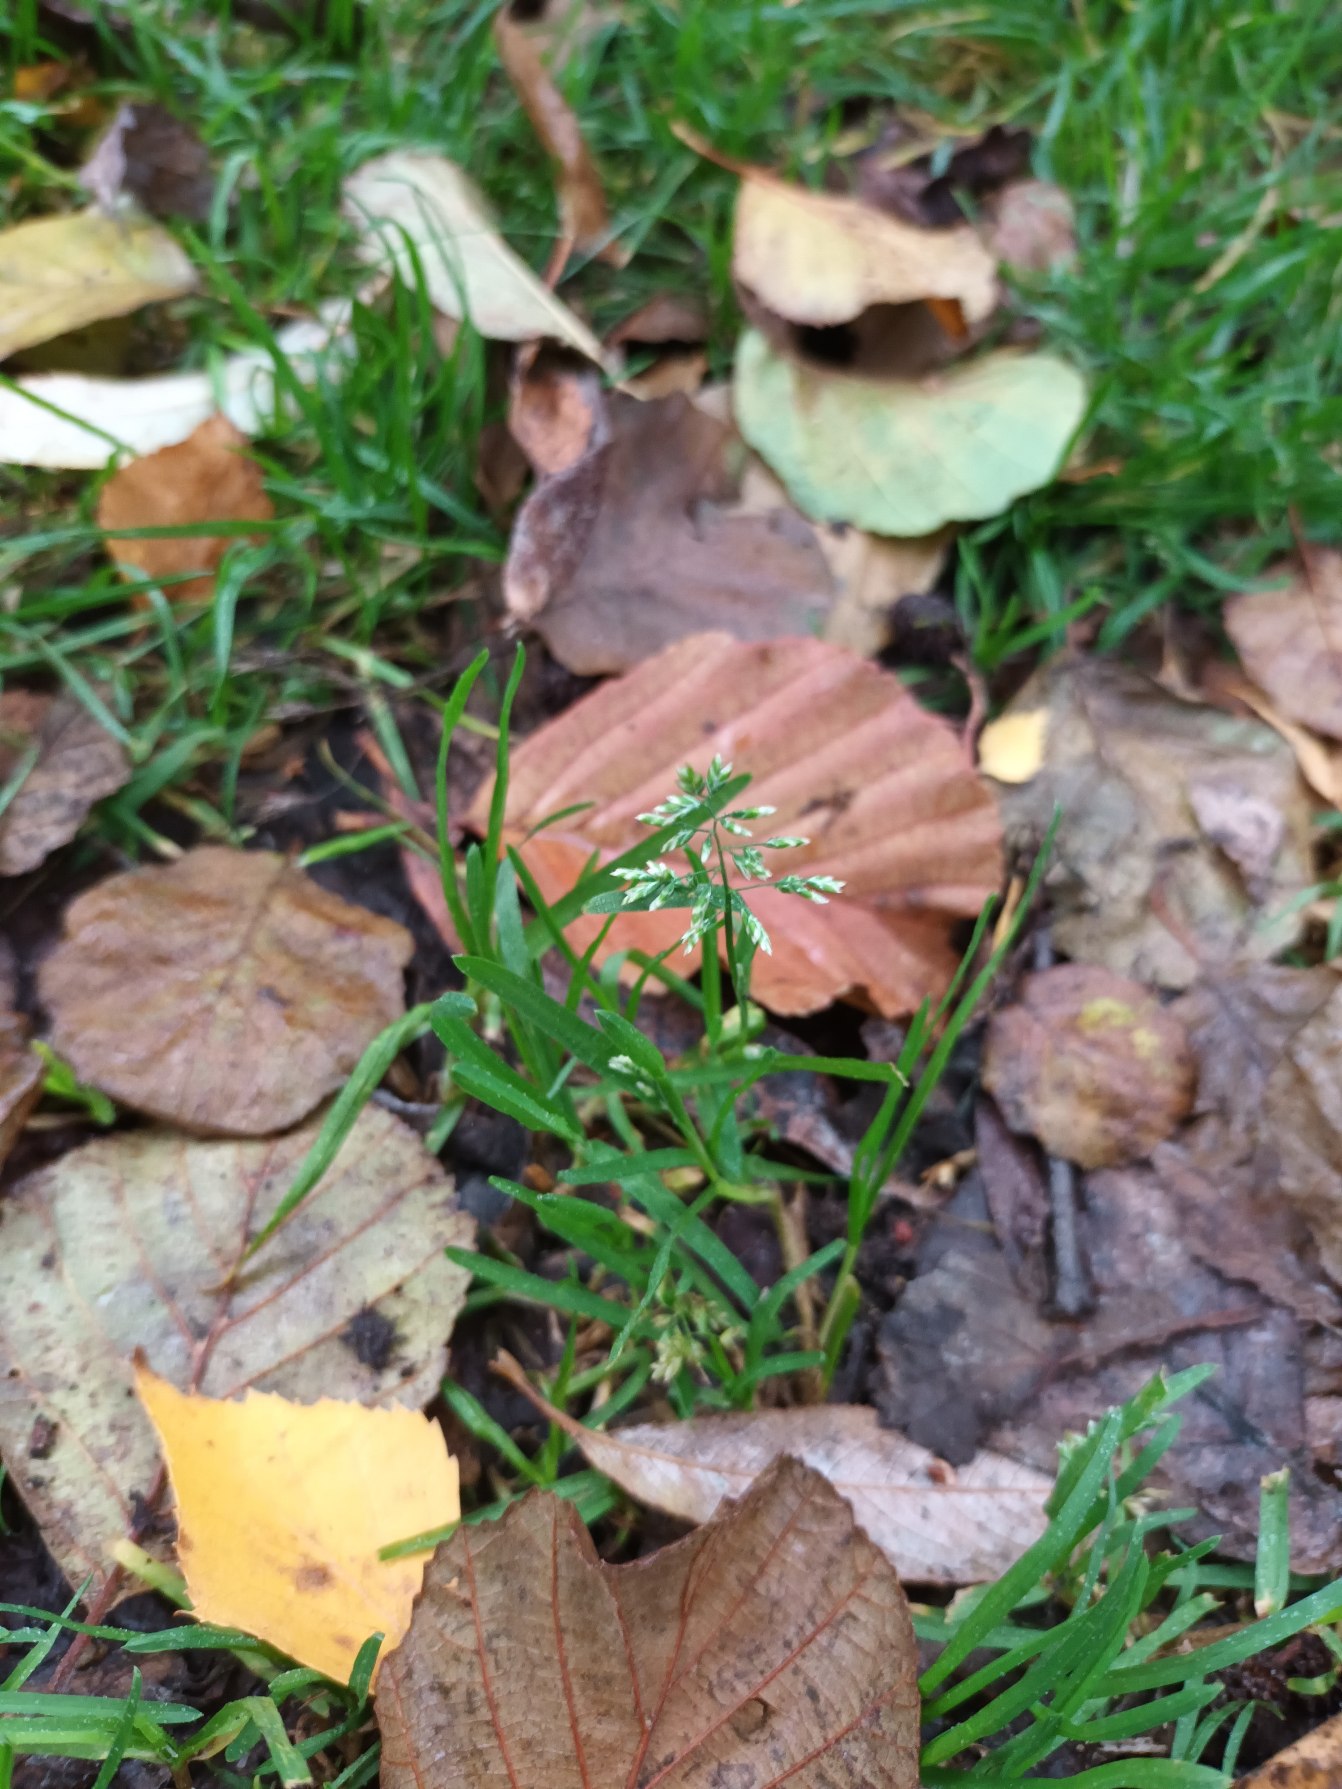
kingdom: Plantae
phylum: Tracheophyta
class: Liliopsida
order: Poales
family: Poaceae
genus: Poa
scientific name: Poa annua
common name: Enårig rapgræs
